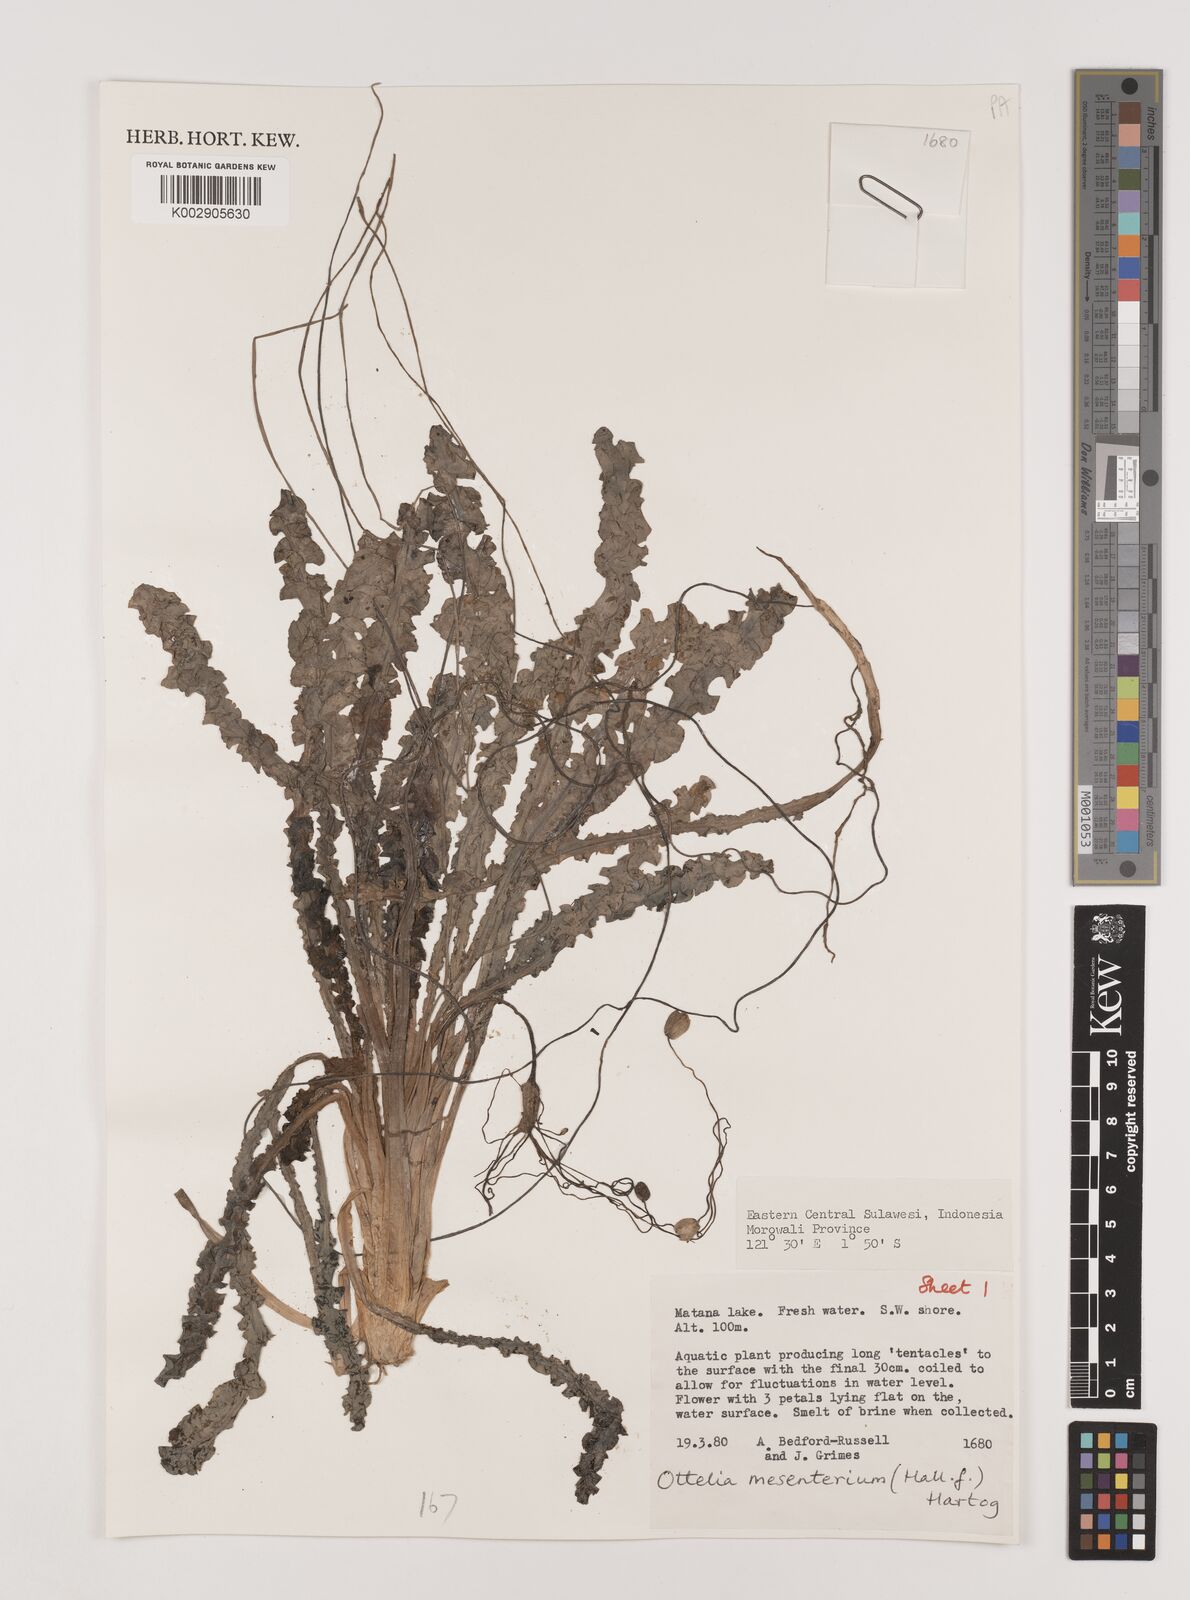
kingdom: Plantae
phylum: Tracheophyta
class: Liliopsida
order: Alismatales
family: Hydrocharitaceae
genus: Ottelia
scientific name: Ottelia mesenterium
